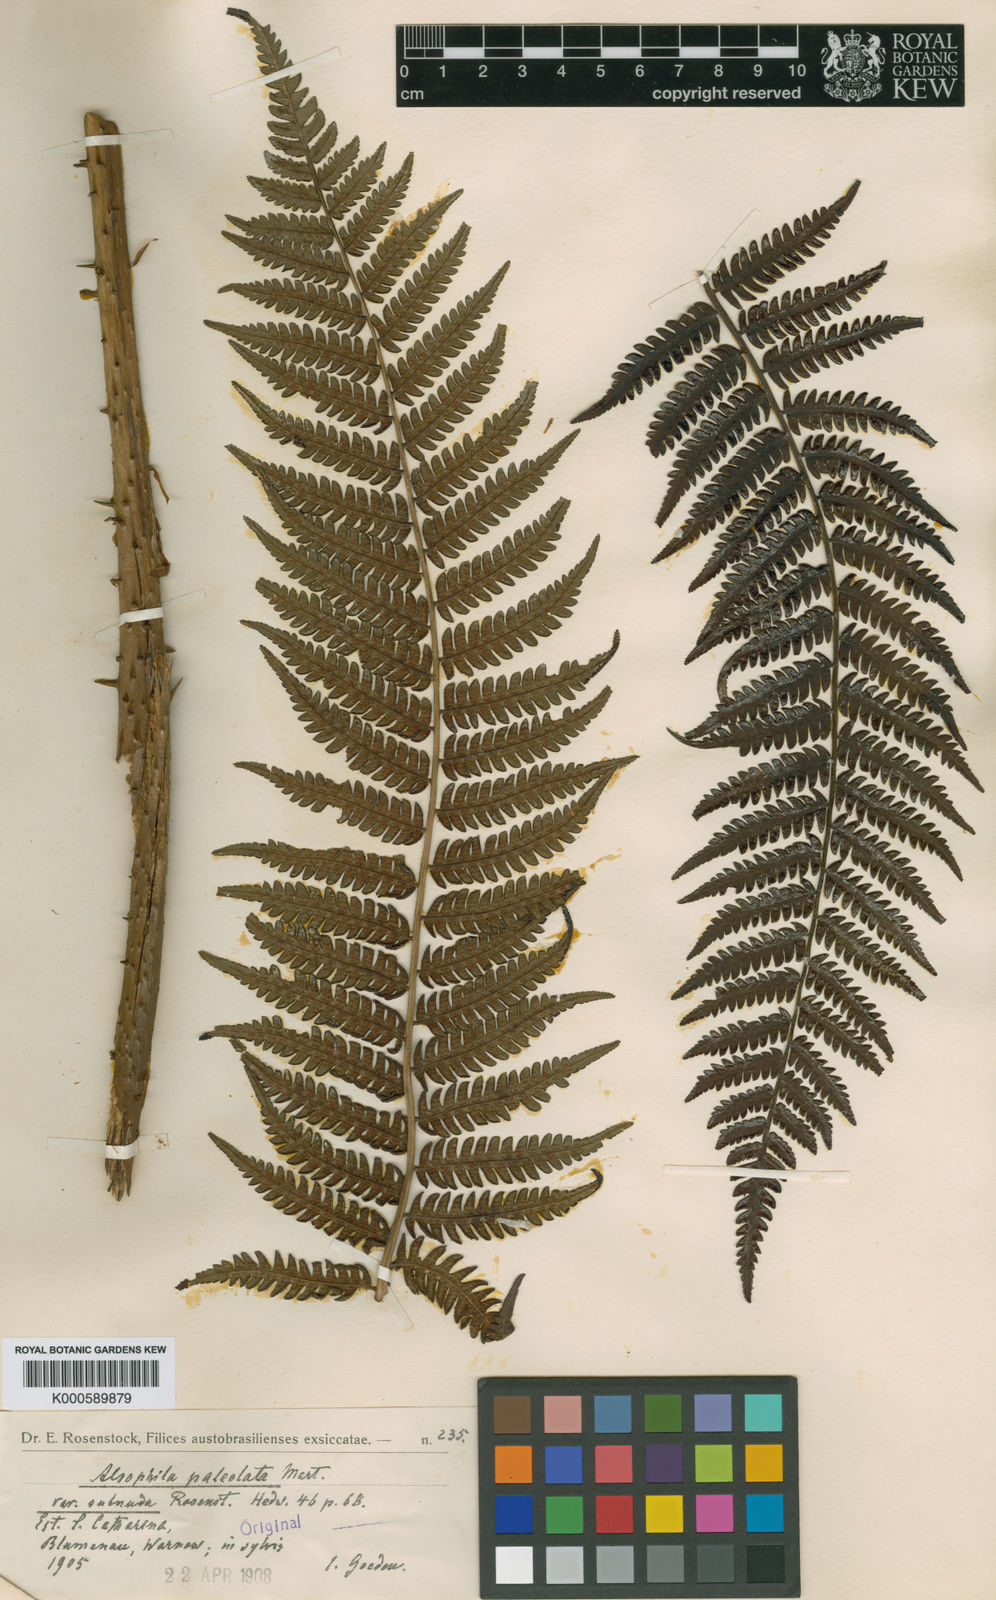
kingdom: Plantae
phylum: Tracheophyta
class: Polypodiopsida
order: Cyatheales
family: Cyatheaceae
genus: Cyathea
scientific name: Cyathea phalerata
